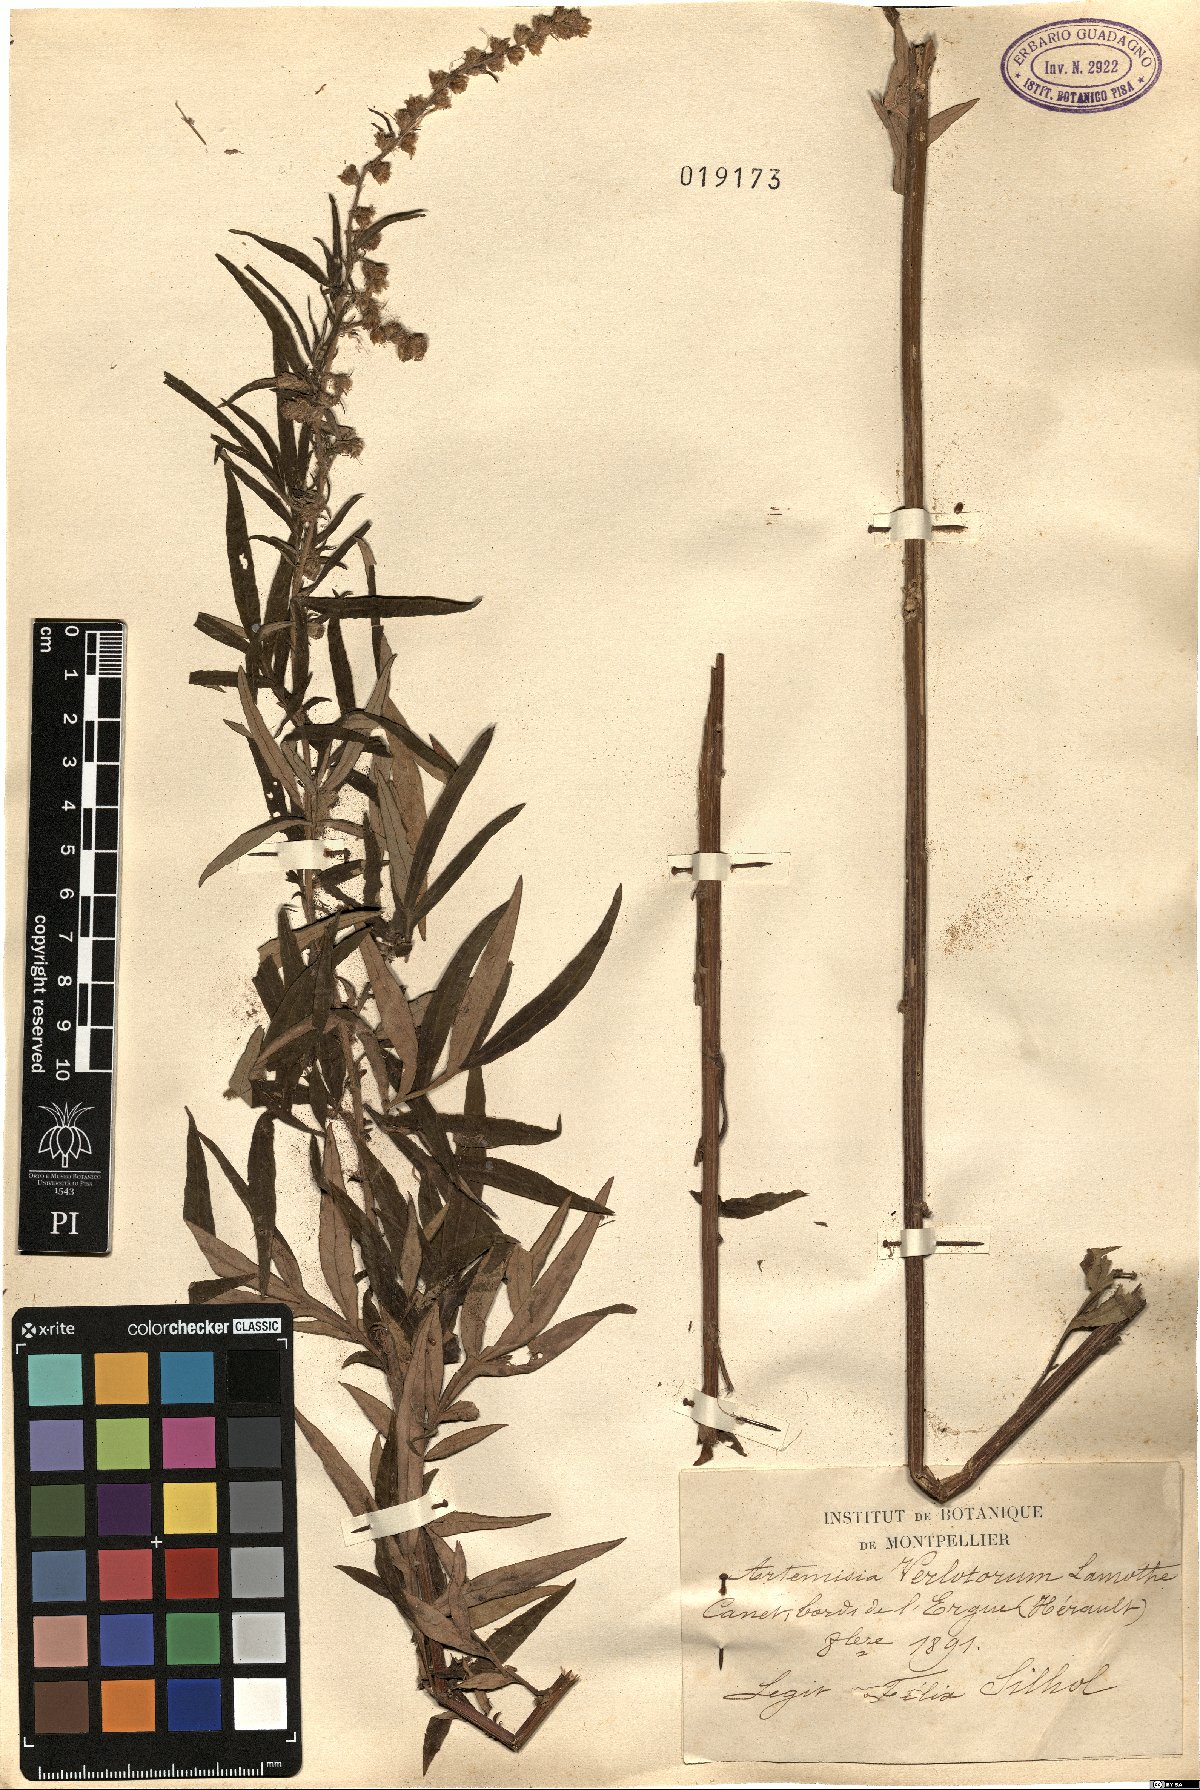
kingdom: Plantae
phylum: Tracheophyta
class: Magnoliopsida
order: Asterales
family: Asteraceae
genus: Artemisia
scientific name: Artemisia verlotiorum
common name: Chinese mugwort
